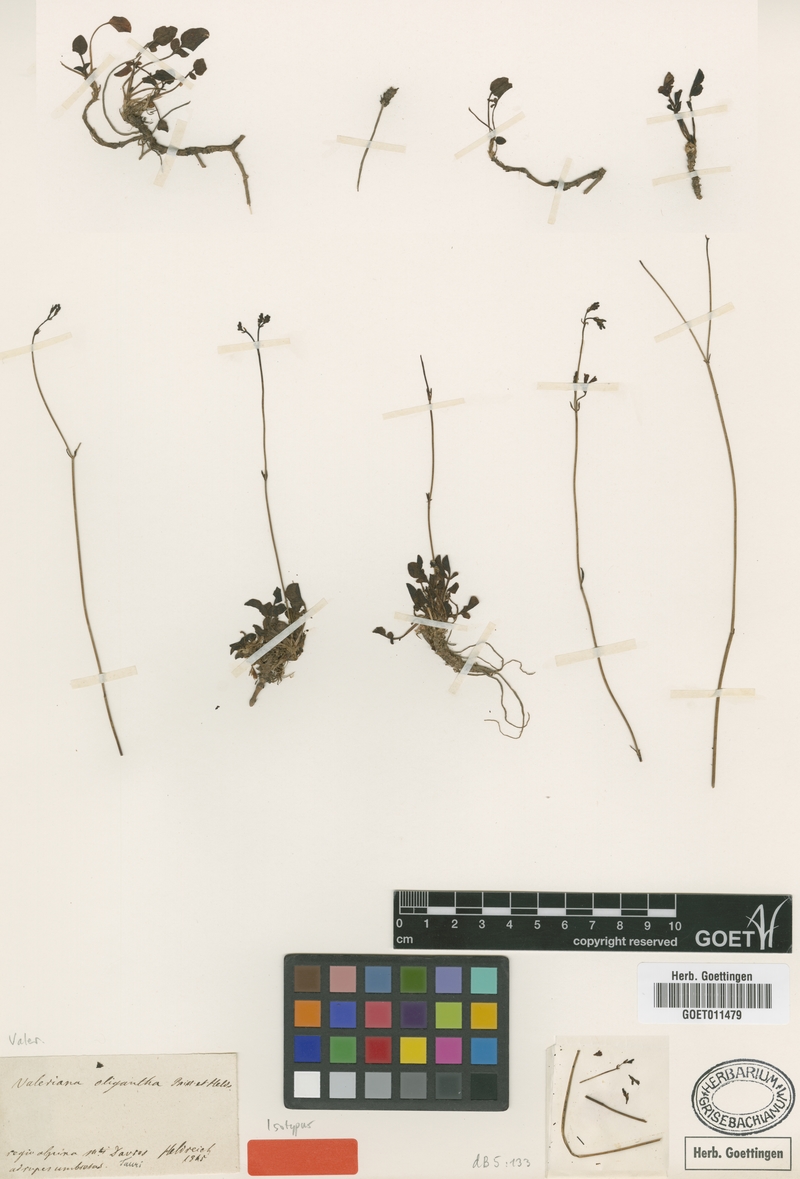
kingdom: Plantae
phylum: Tracheophyta
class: Magnoliopsida
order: Dipsacales
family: Caprifoliaceae
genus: Valeriana
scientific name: Valeriana oligantha
